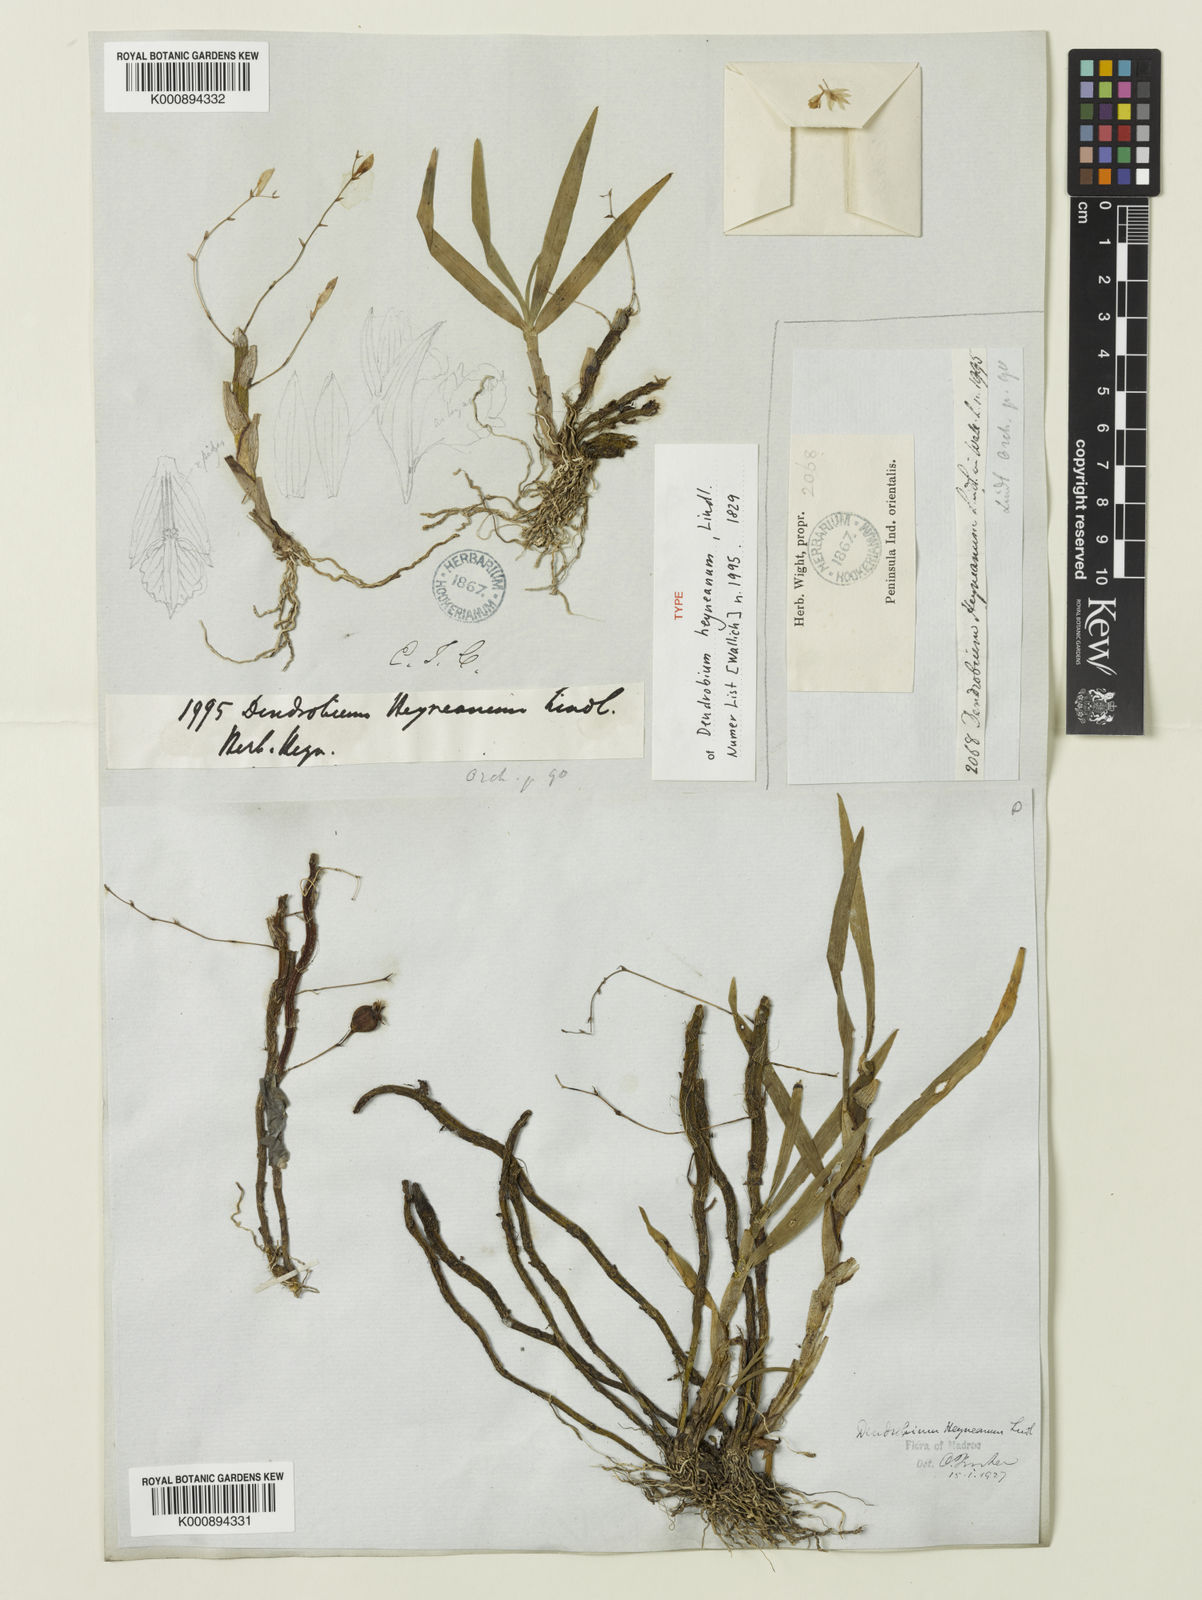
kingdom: Plantae
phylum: Tracheophyta
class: Liliopsida
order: Asparagales
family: Orchidaceae
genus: Dendrobium
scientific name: Dendrobium heyneanum
